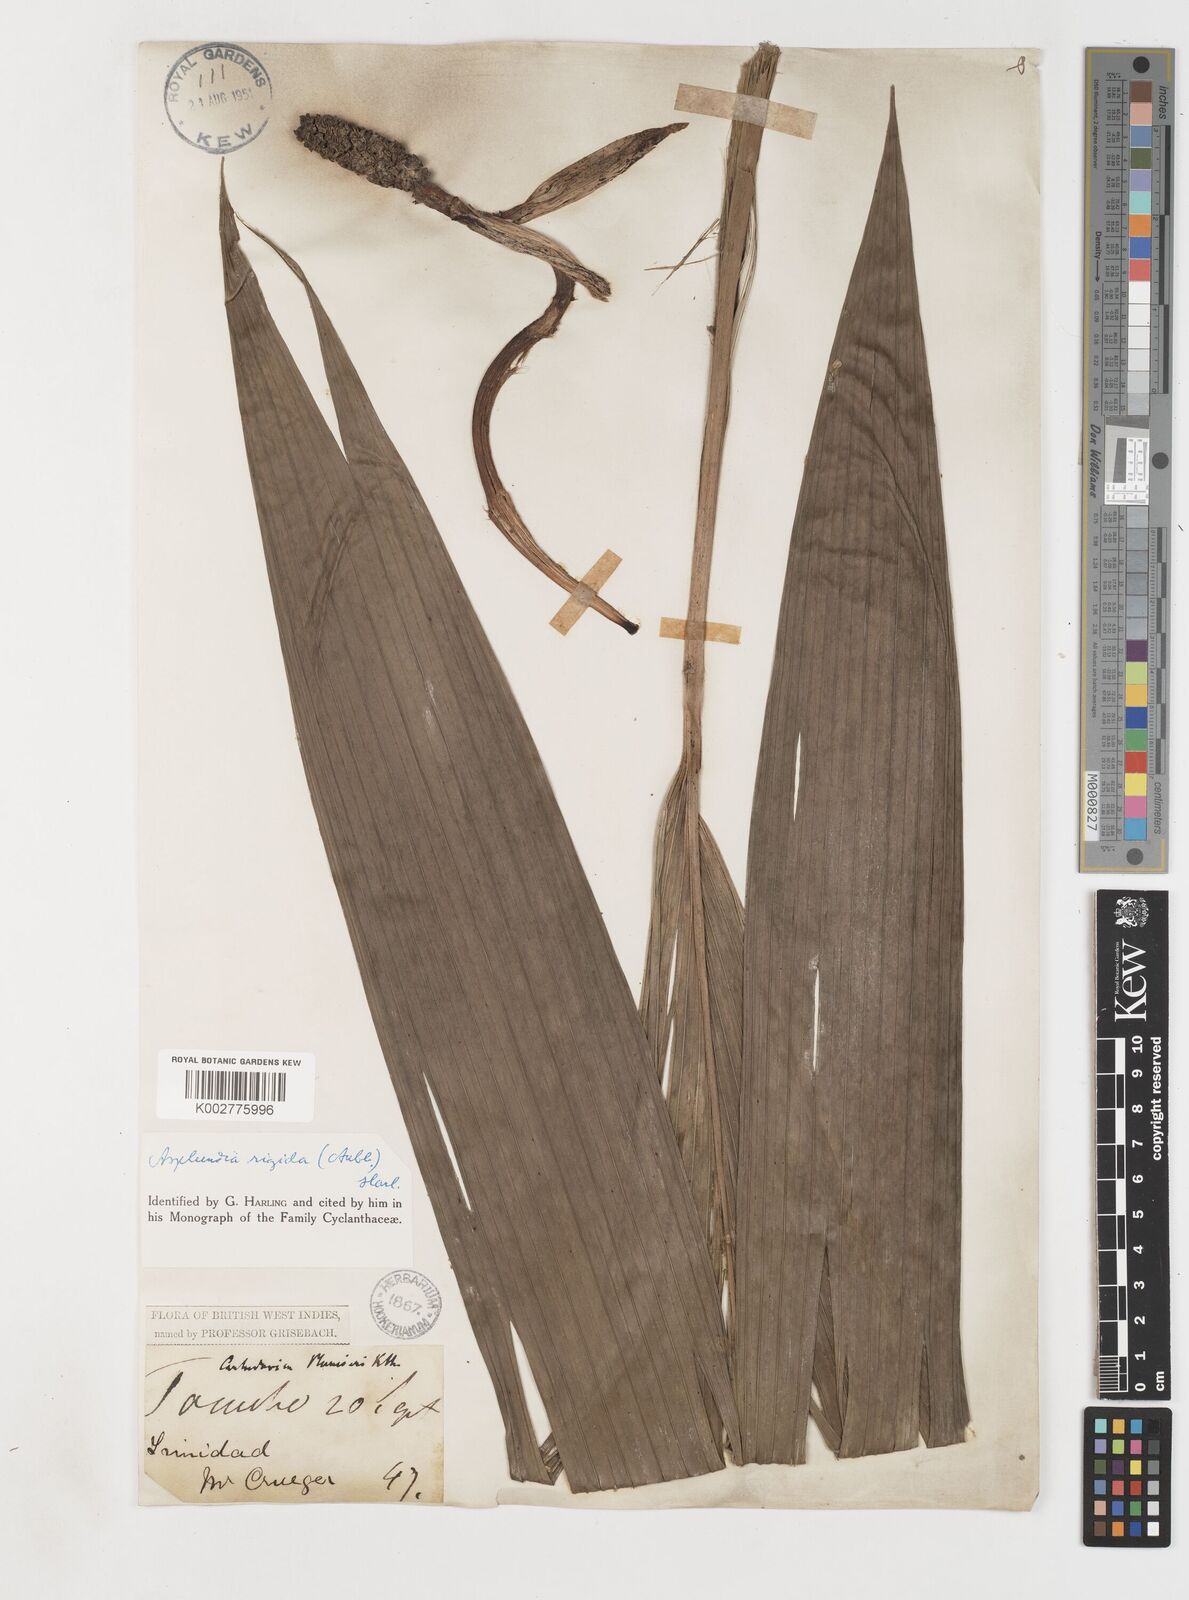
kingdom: Plantae
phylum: Tracheophyta
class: Liliopsida
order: Pandanales
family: Cyclanthaceae
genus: Asplundia
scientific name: Asplundia rigida
